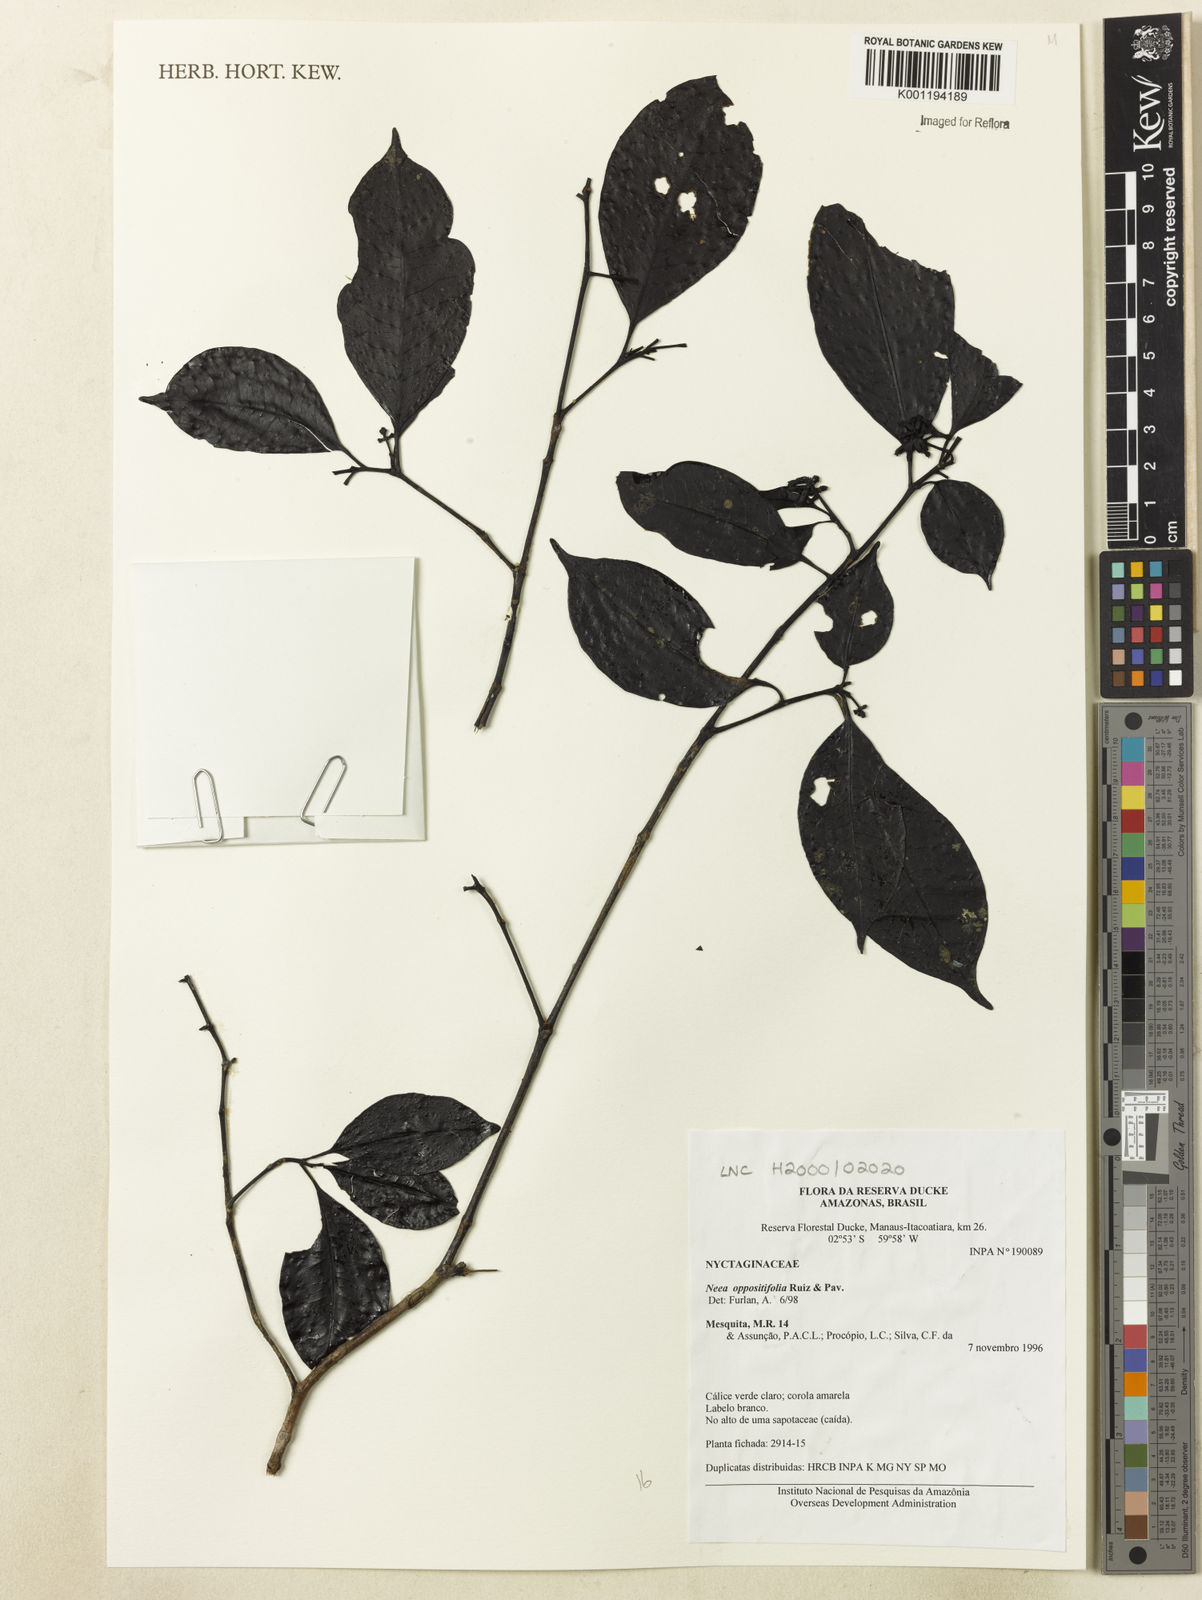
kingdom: Plantae
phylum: Tracheophyta
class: Magnoliopsida
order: Caryophyllales
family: Nyctaginaceae
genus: Neea
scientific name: Neea oppositifolia
